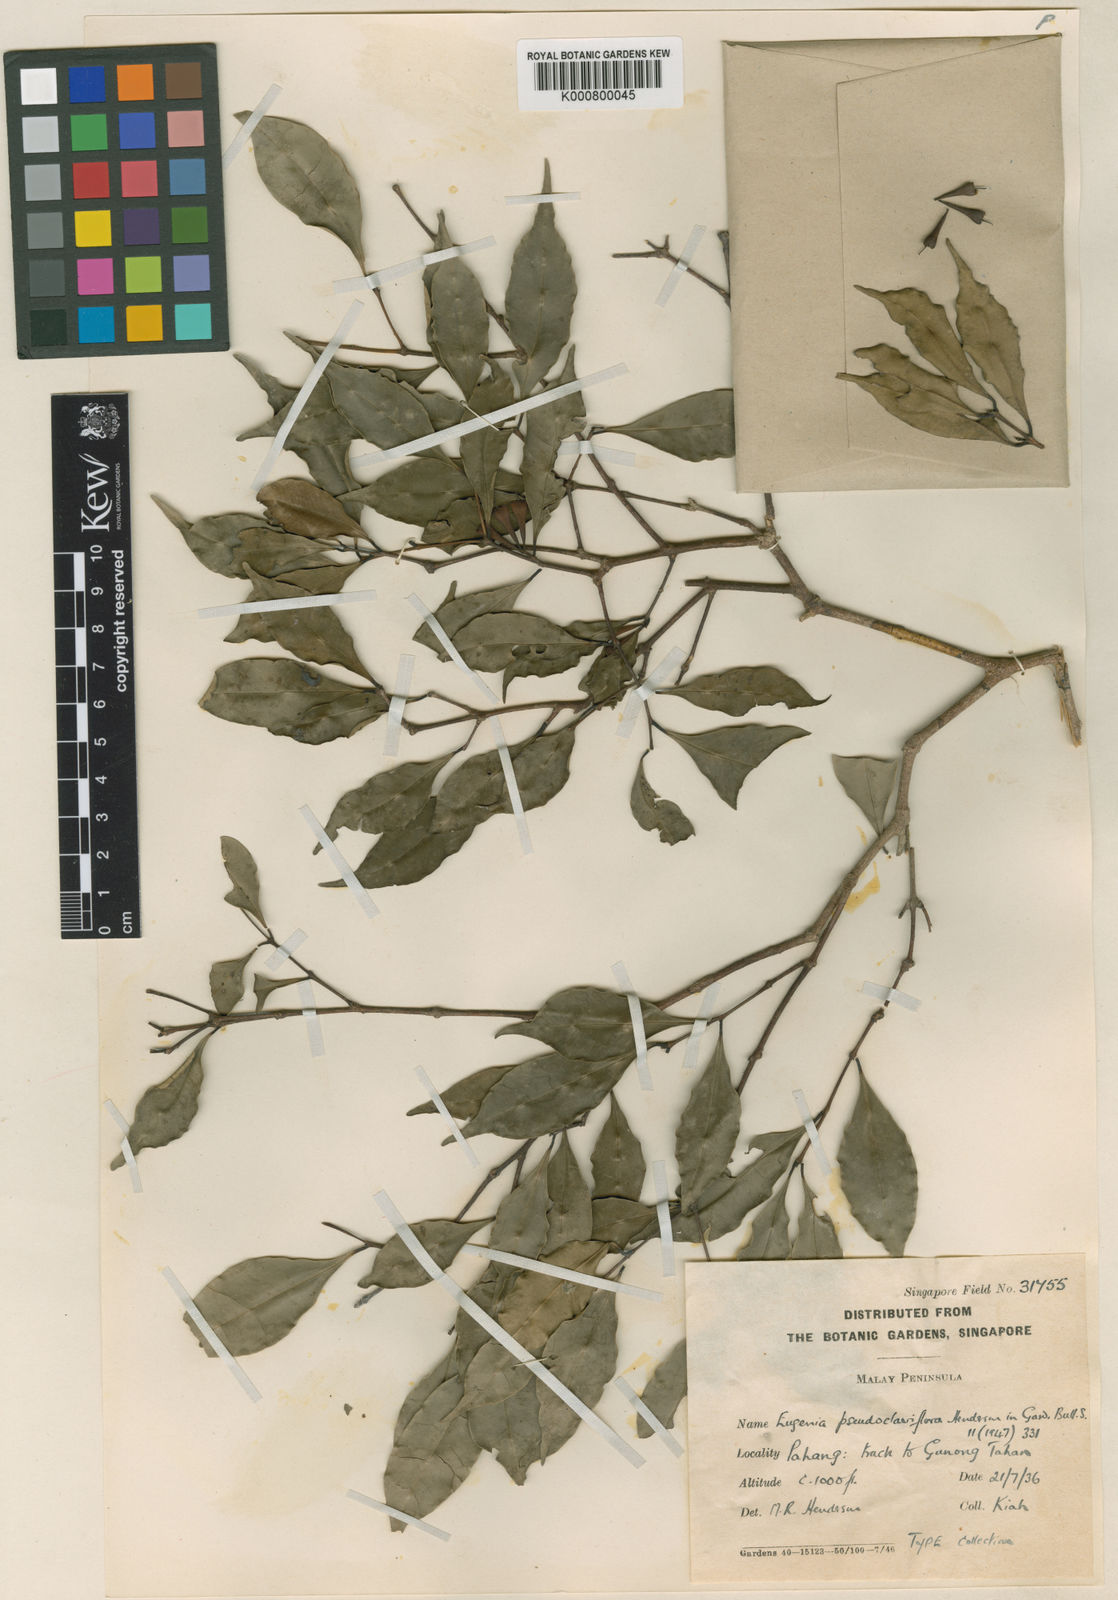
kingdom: Plantae
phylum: Tracheophyta
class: Magnoliopsida
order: Myrtales
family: Myrtaceae
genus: Syzygium
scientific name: Syzygium pseudoclaviflorum
